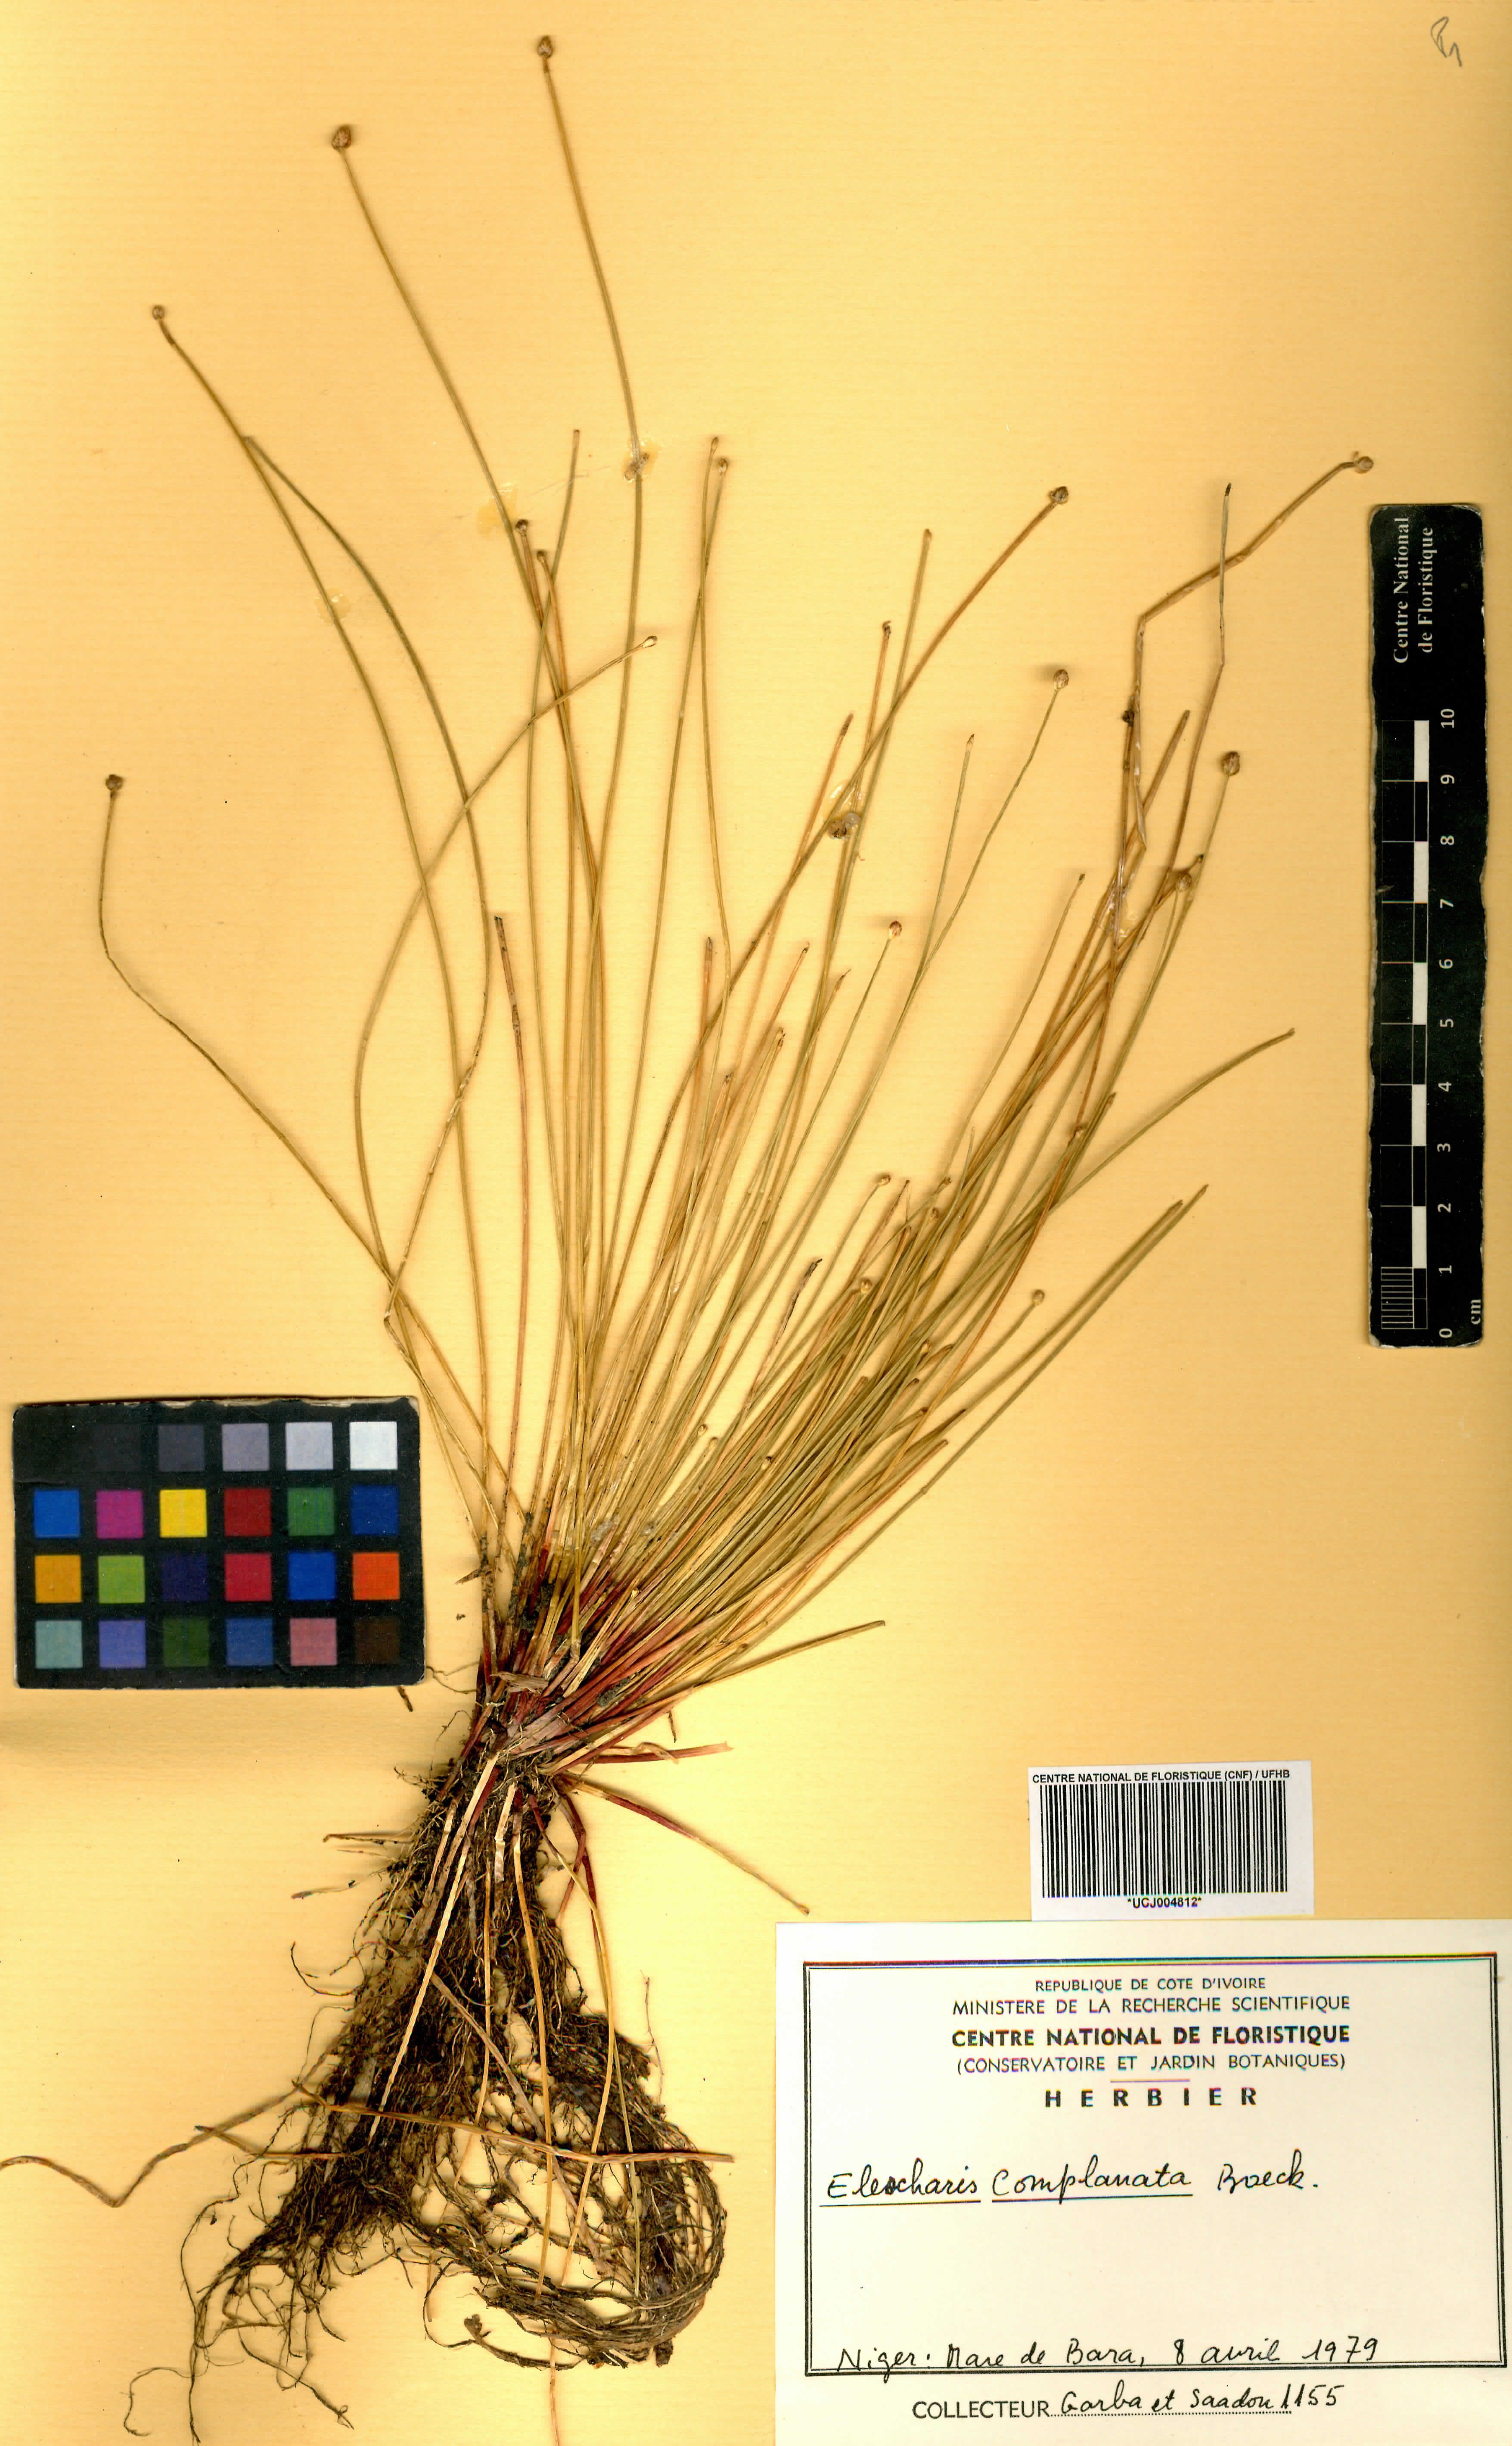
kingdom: Plantae
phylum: Tracheophyta
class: Liliopsida
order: Poales
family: Cyperaceae
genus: Eleocharis
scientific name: Eleocharis complanata
